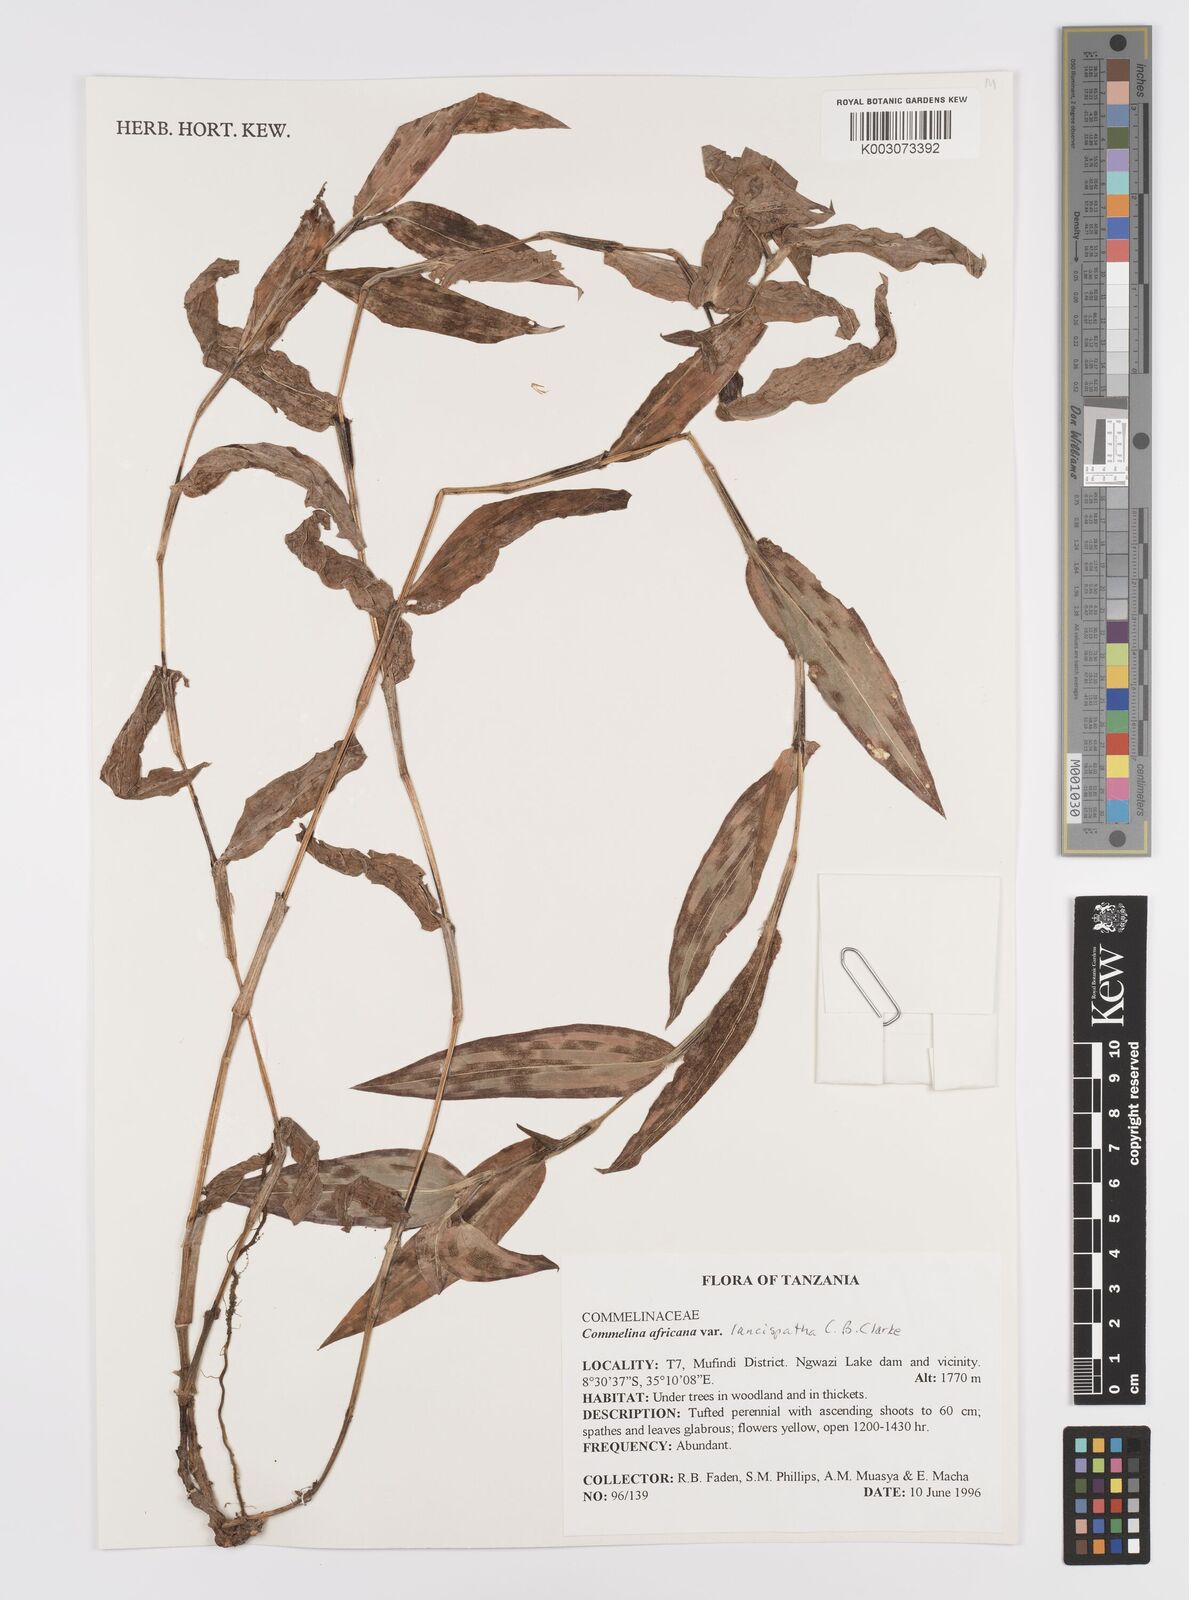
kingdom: Plantae
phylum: Tracheophyta
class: Liliopsida
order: Commelinales
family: Commelinaceae
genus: Commelina
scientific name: Commelina africana
